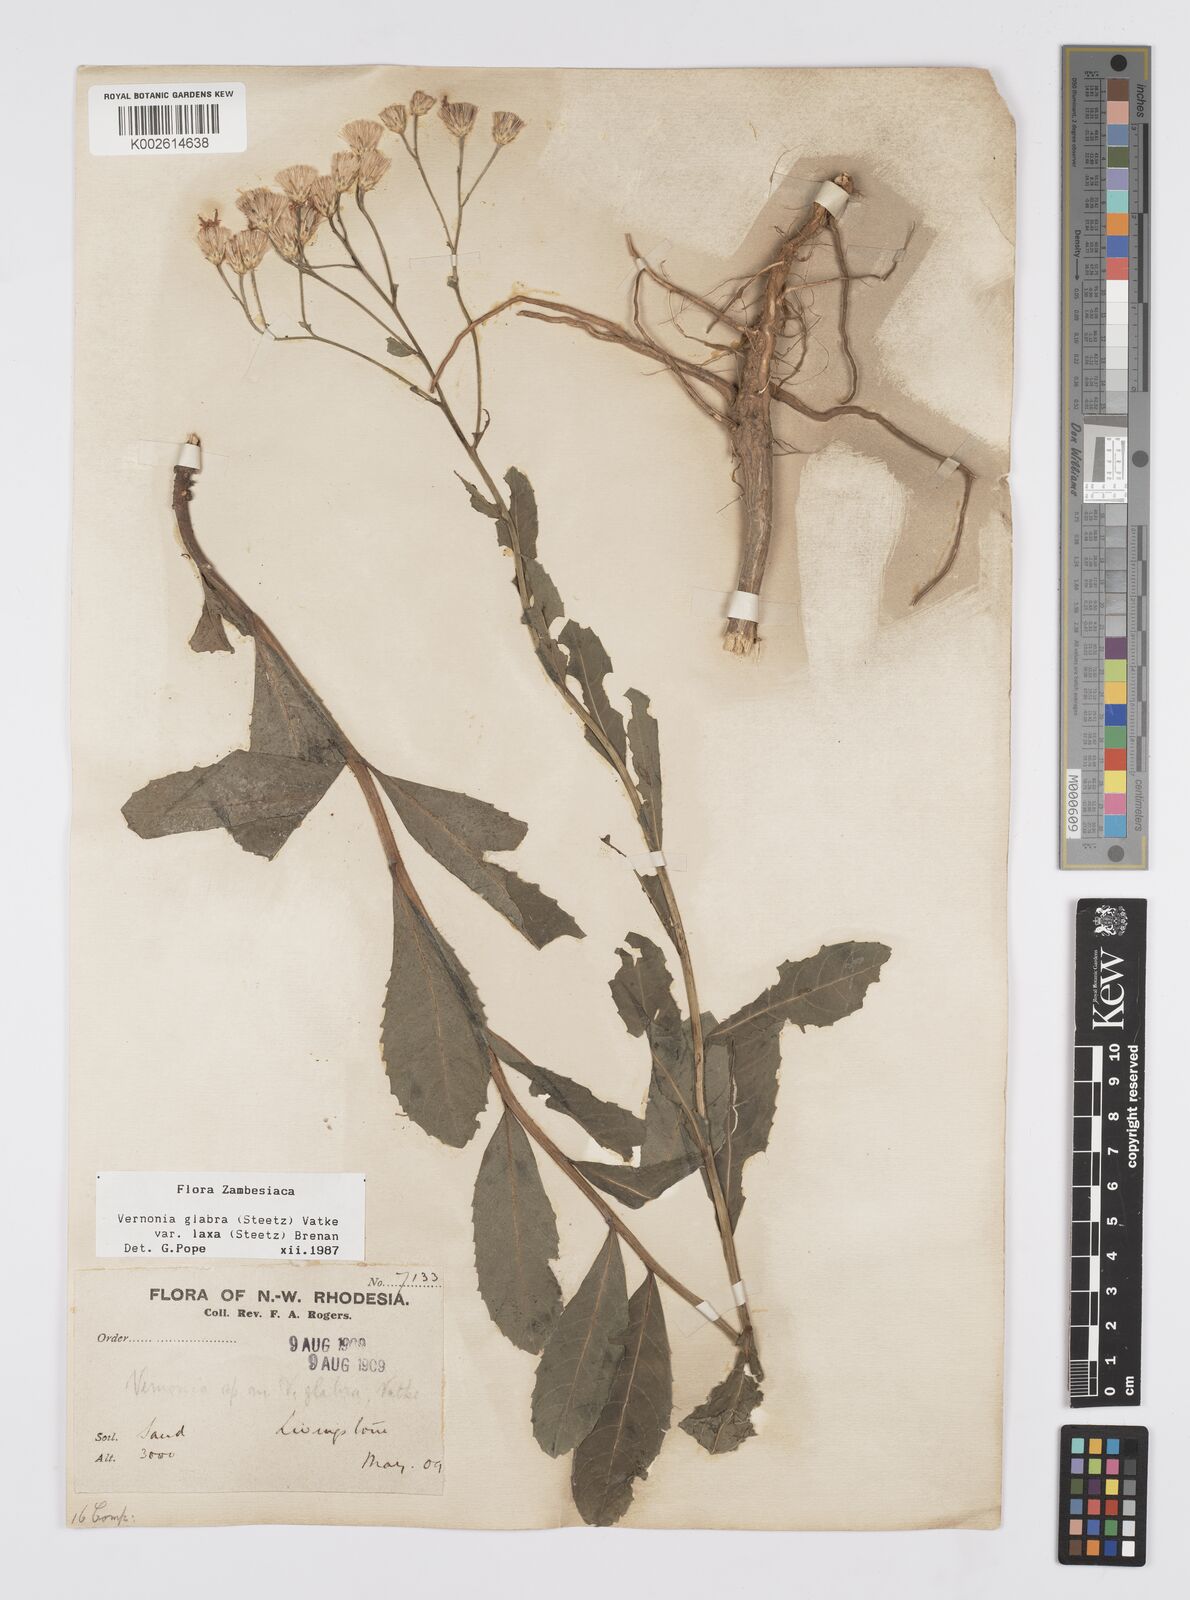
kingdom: Plantae
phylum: Tracheophyta
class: Magnoliopsida
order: Asterales
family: Asteraceae
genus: Linzia
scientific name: Linzia glabra
